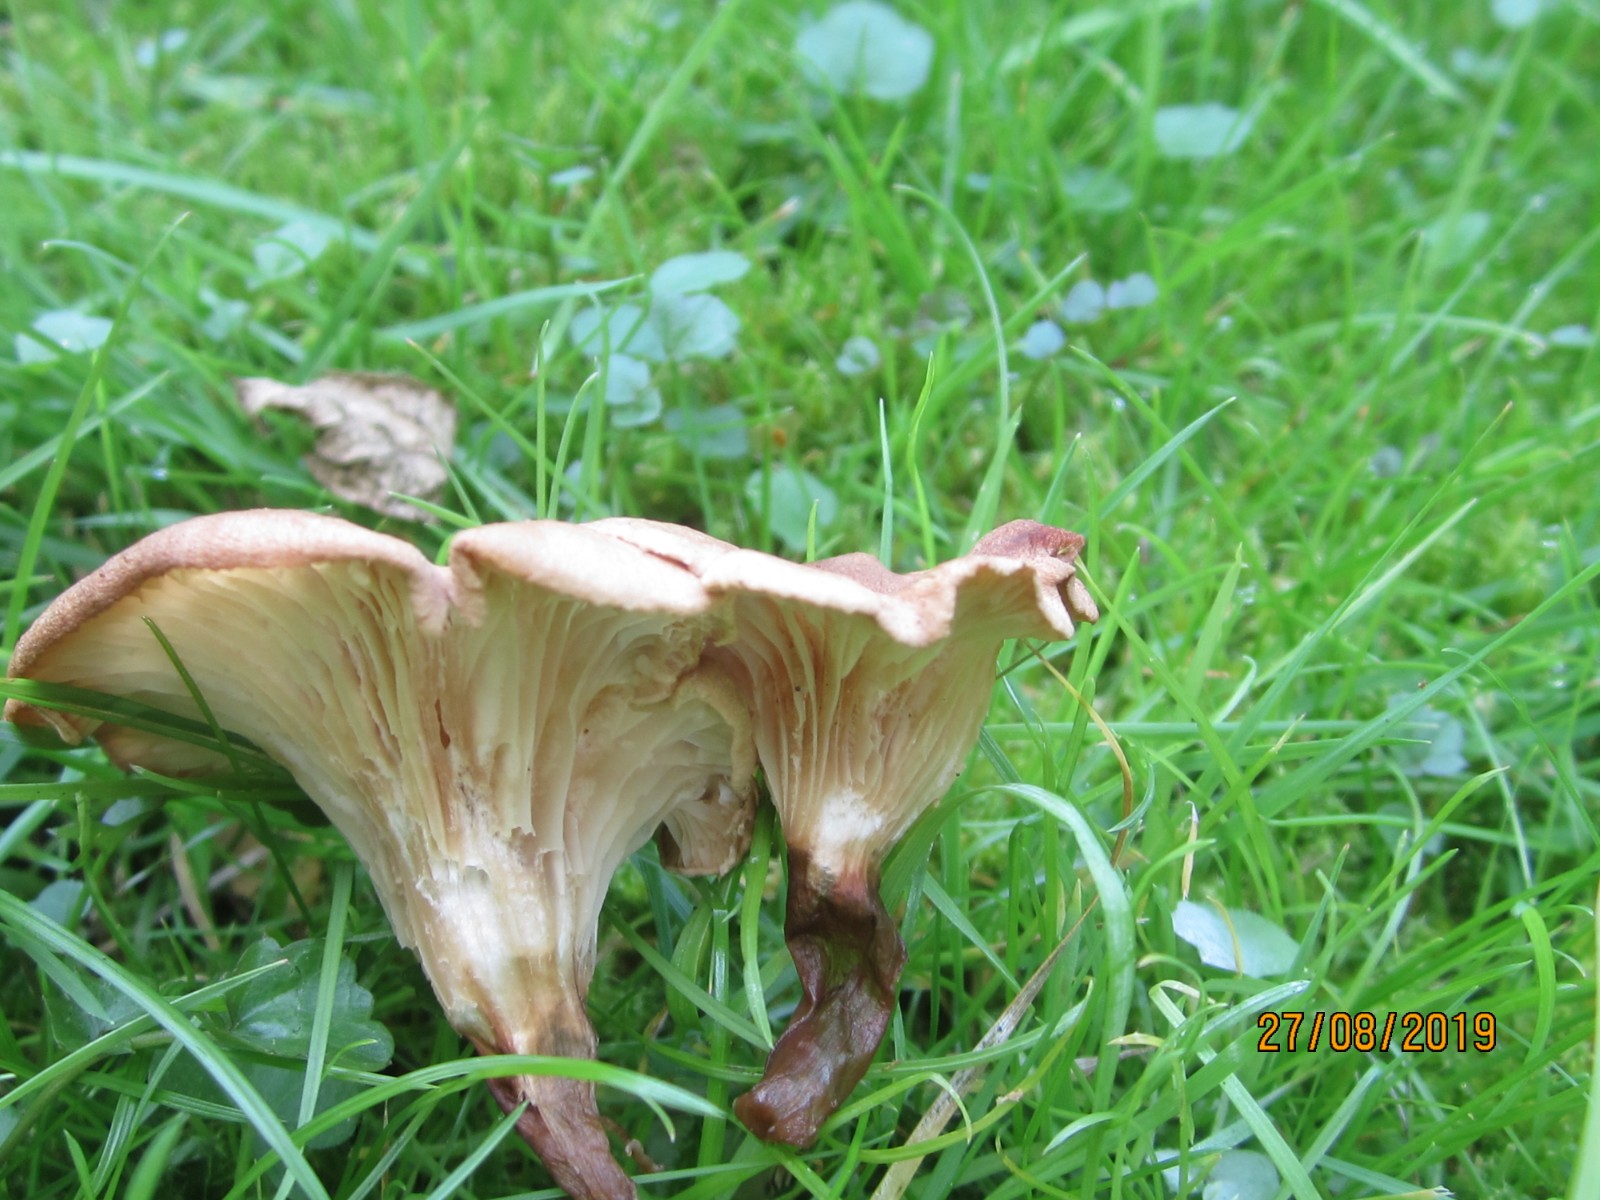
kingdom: Fungi
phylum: Basidiomycota
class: Agaricomycetes
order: Agaricales
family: Tricholomataceae
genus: Infundibulicybe
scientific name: Infundibulicybe squamulosa
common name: småskællet tragthat
